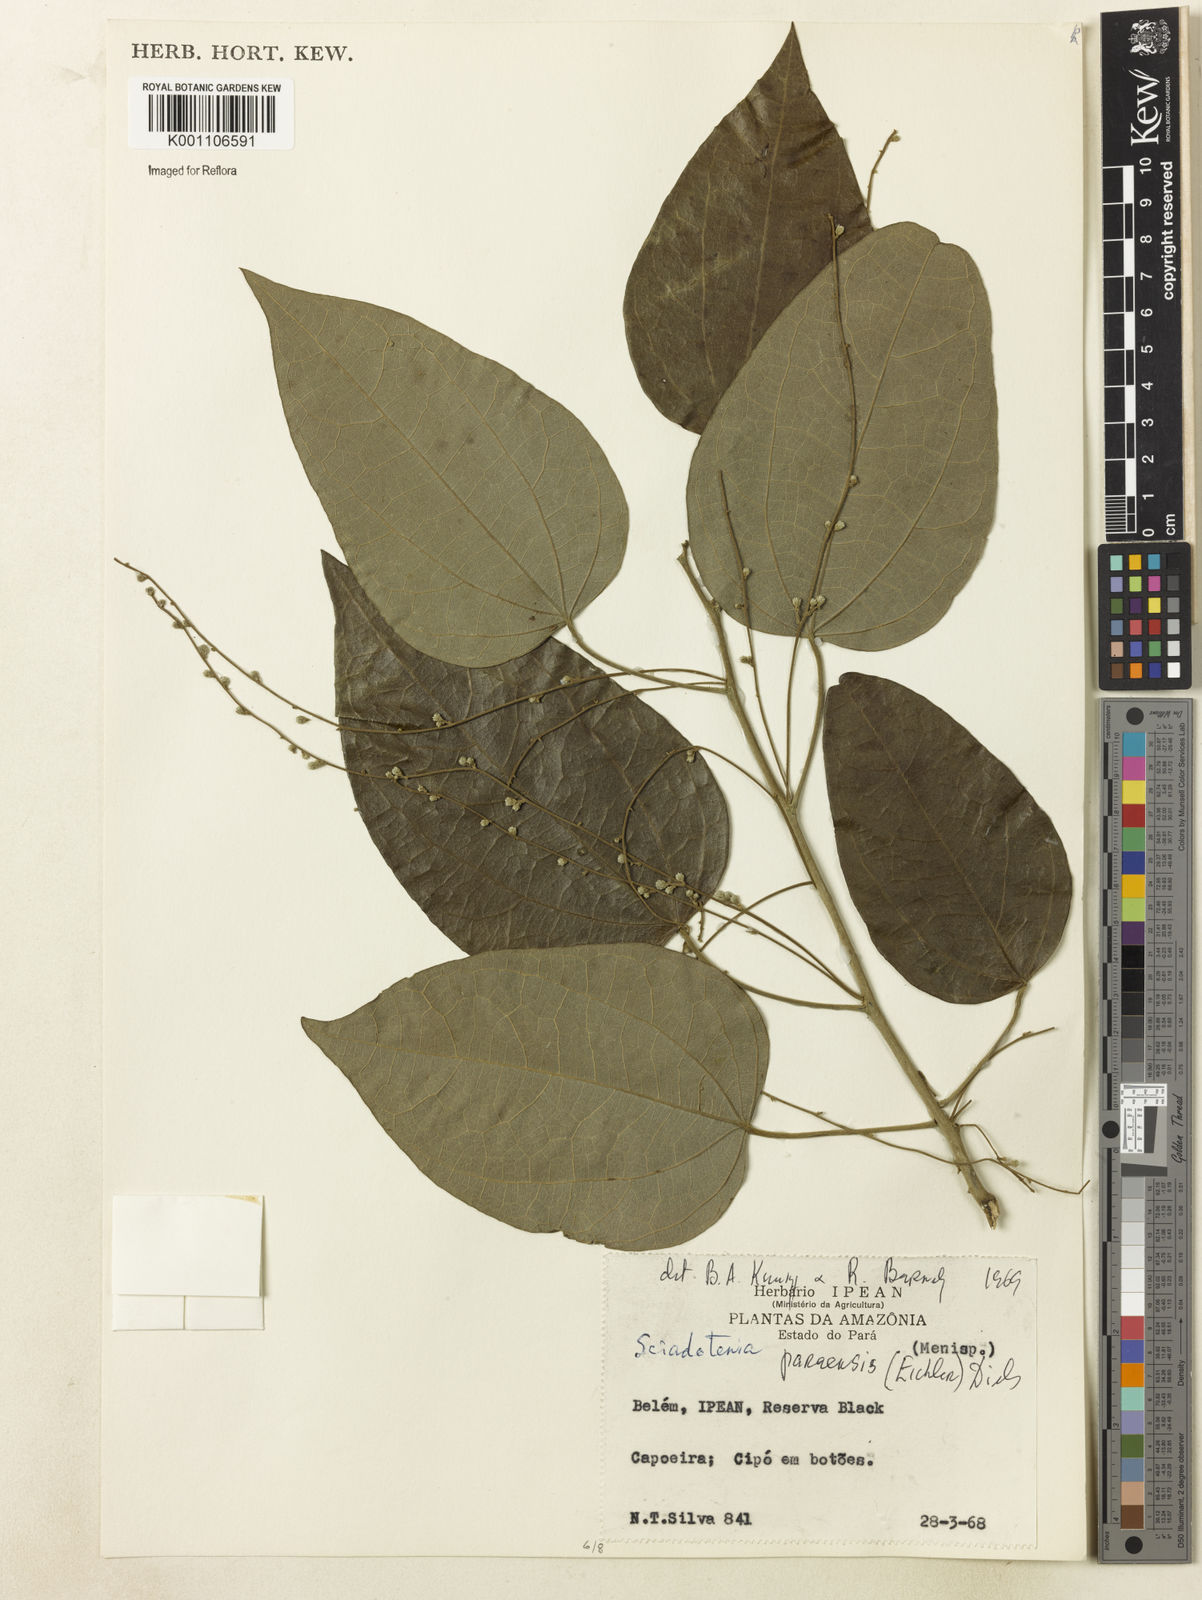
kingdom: Plantae
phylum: Tracheophyta
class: Magnoliopsida
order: Ranunculales
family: Menispermaceae
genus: Sciadotenia
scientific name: Sciadotenia paraensis
